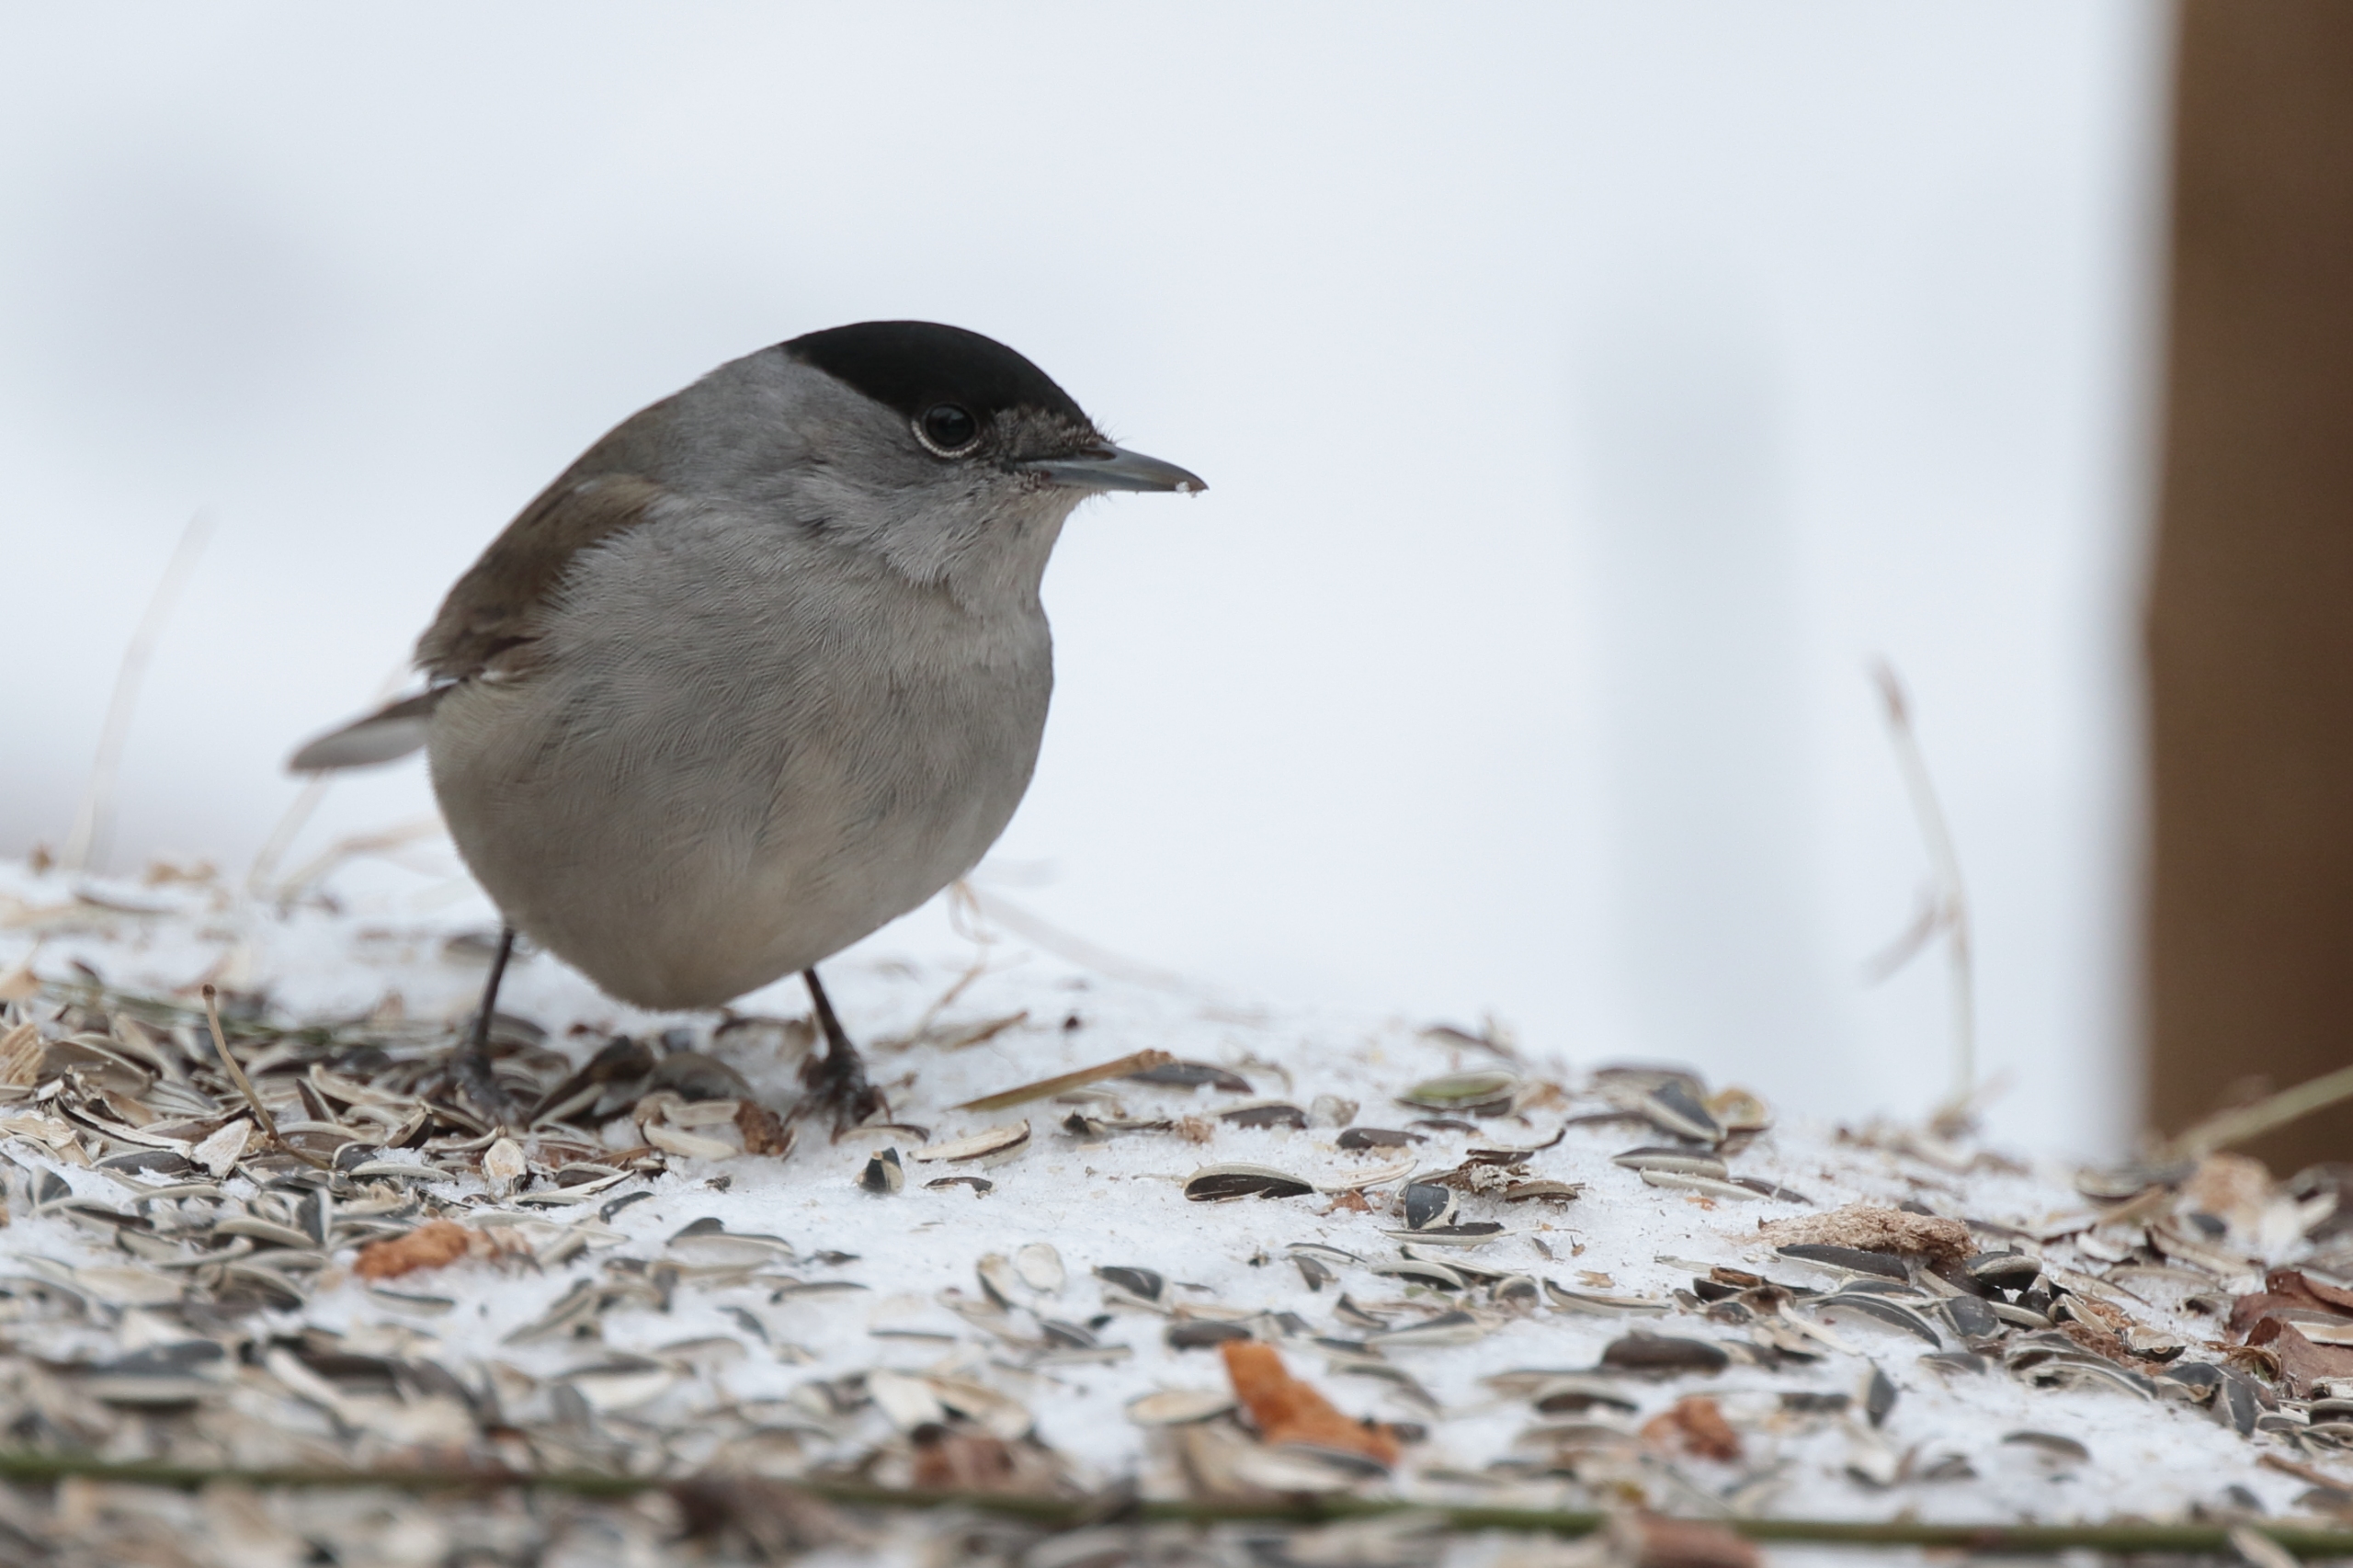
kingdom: Animalia
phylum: Chordata
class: Aves
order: Passeriformes
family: Sylviidae
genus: Sylvia
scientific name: Sylvia atricapilla
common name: Munk
